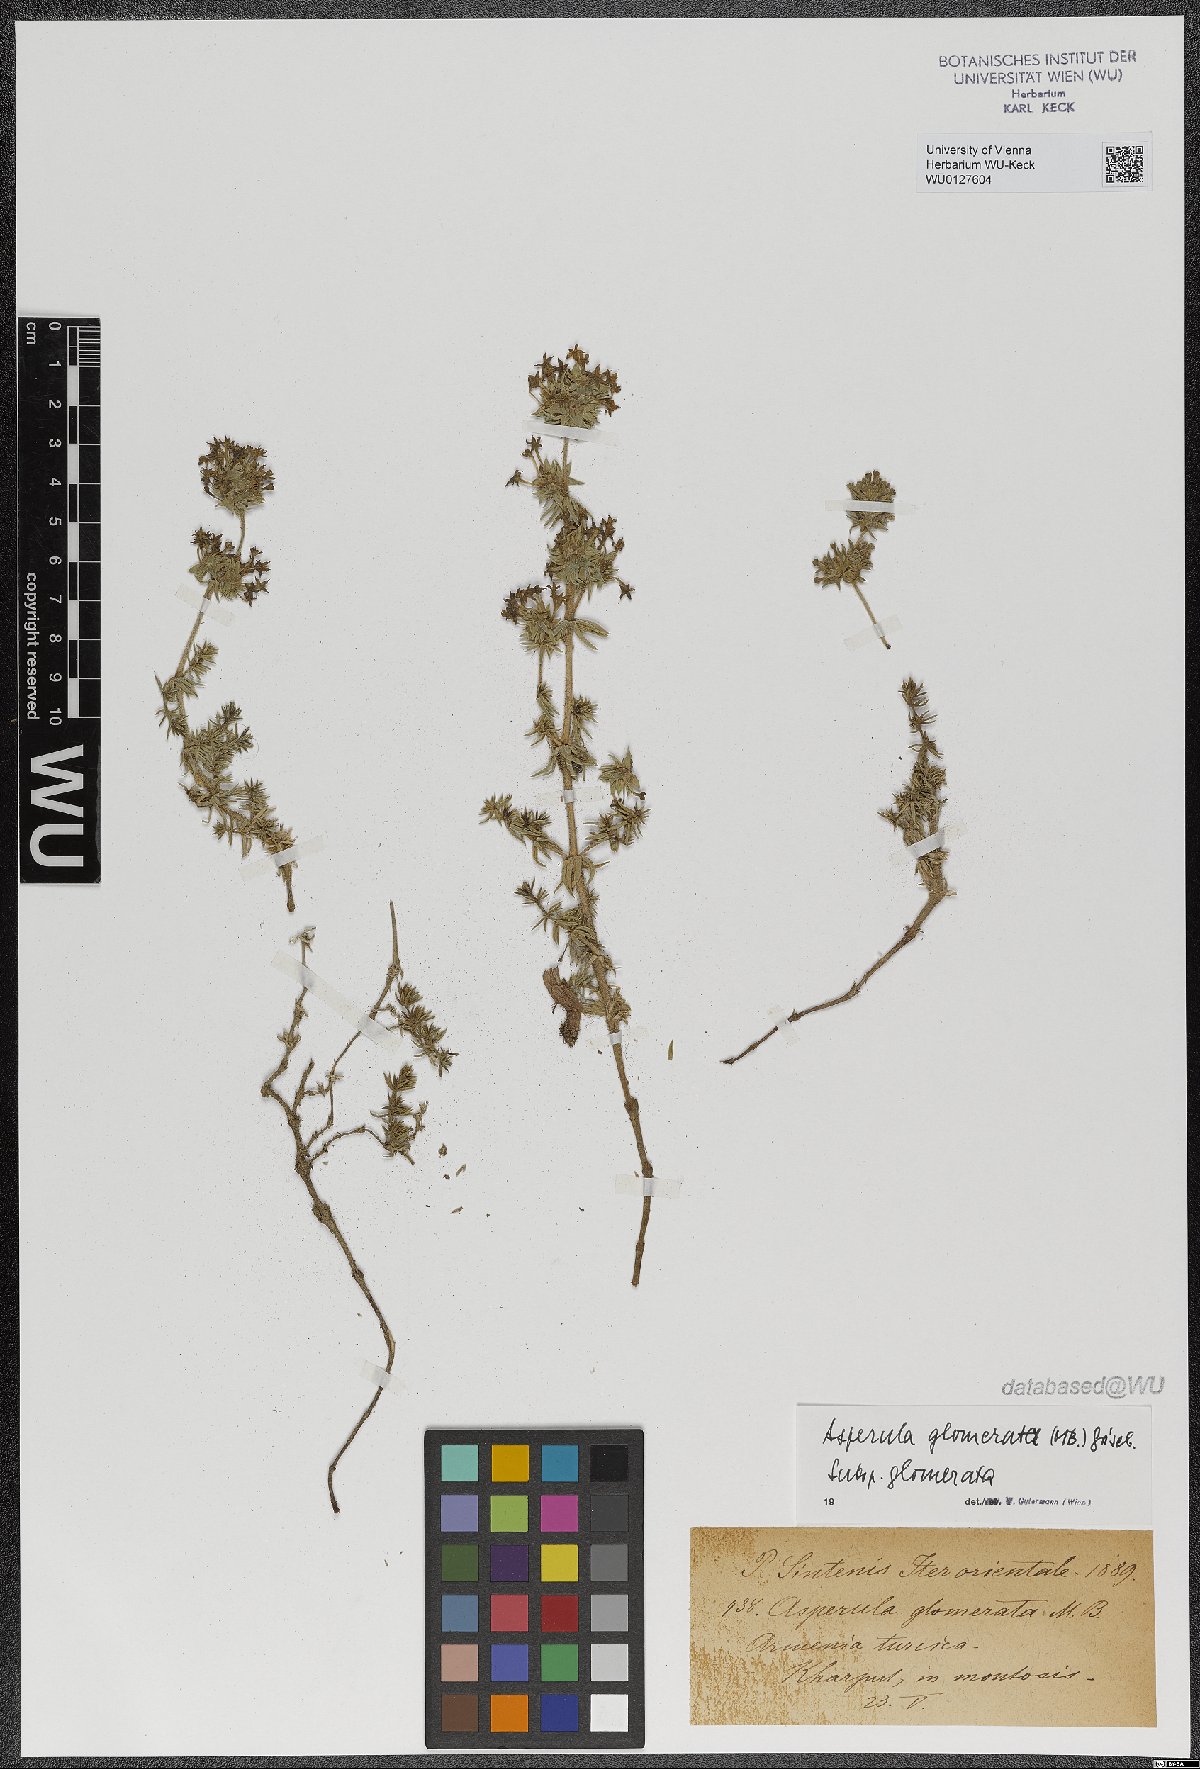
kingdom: Plantae
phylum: Tracheophyta
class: Magnoliopsida
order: Gentianales
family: Rubiaceae
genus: Asperula
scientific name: Asperula glomerata
